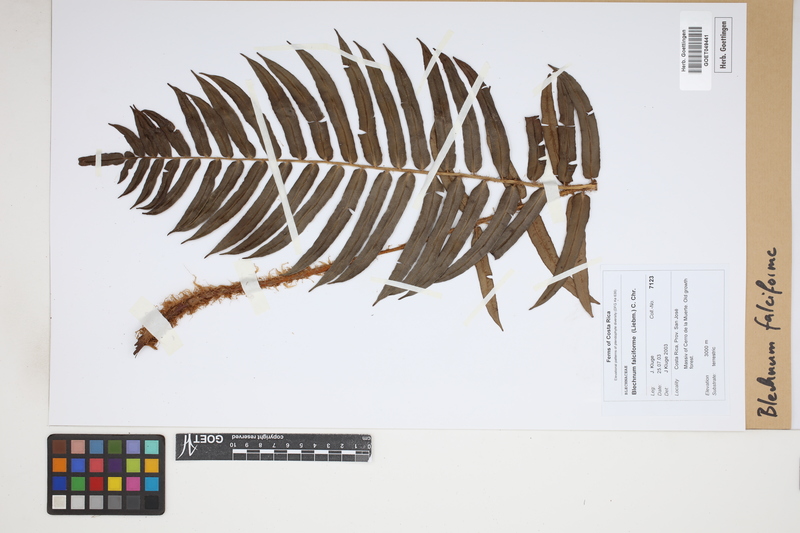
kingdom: Plantae
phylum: Tracheophyta
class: Polypodiopsida
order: Polypodiales
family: Blechnaceae
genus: Parablechnum
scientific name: Parablechnum falciforme
